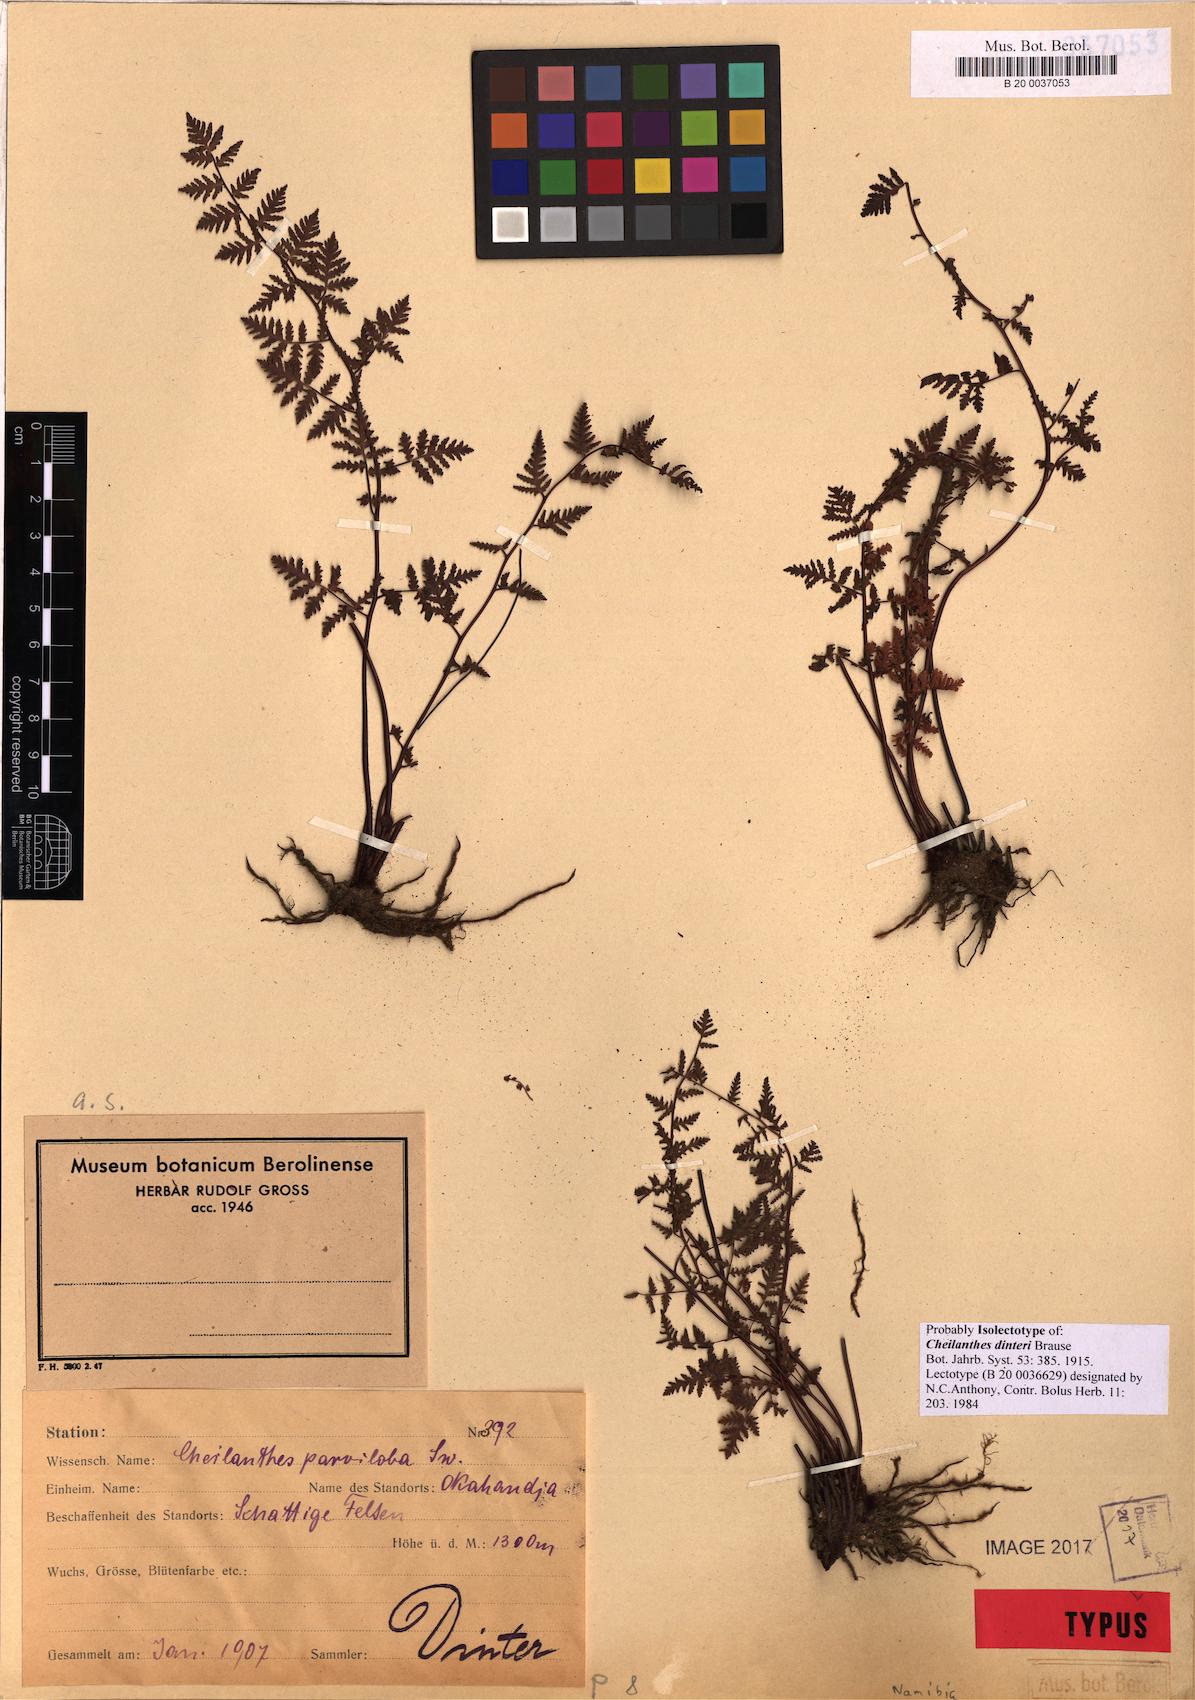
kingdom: Plantae
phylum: Tracheophyta
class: Polypodiopsida
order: Polypodiales
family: Pteridaceae
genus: Cheilanthes
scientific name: Cheilanthes dinteri
